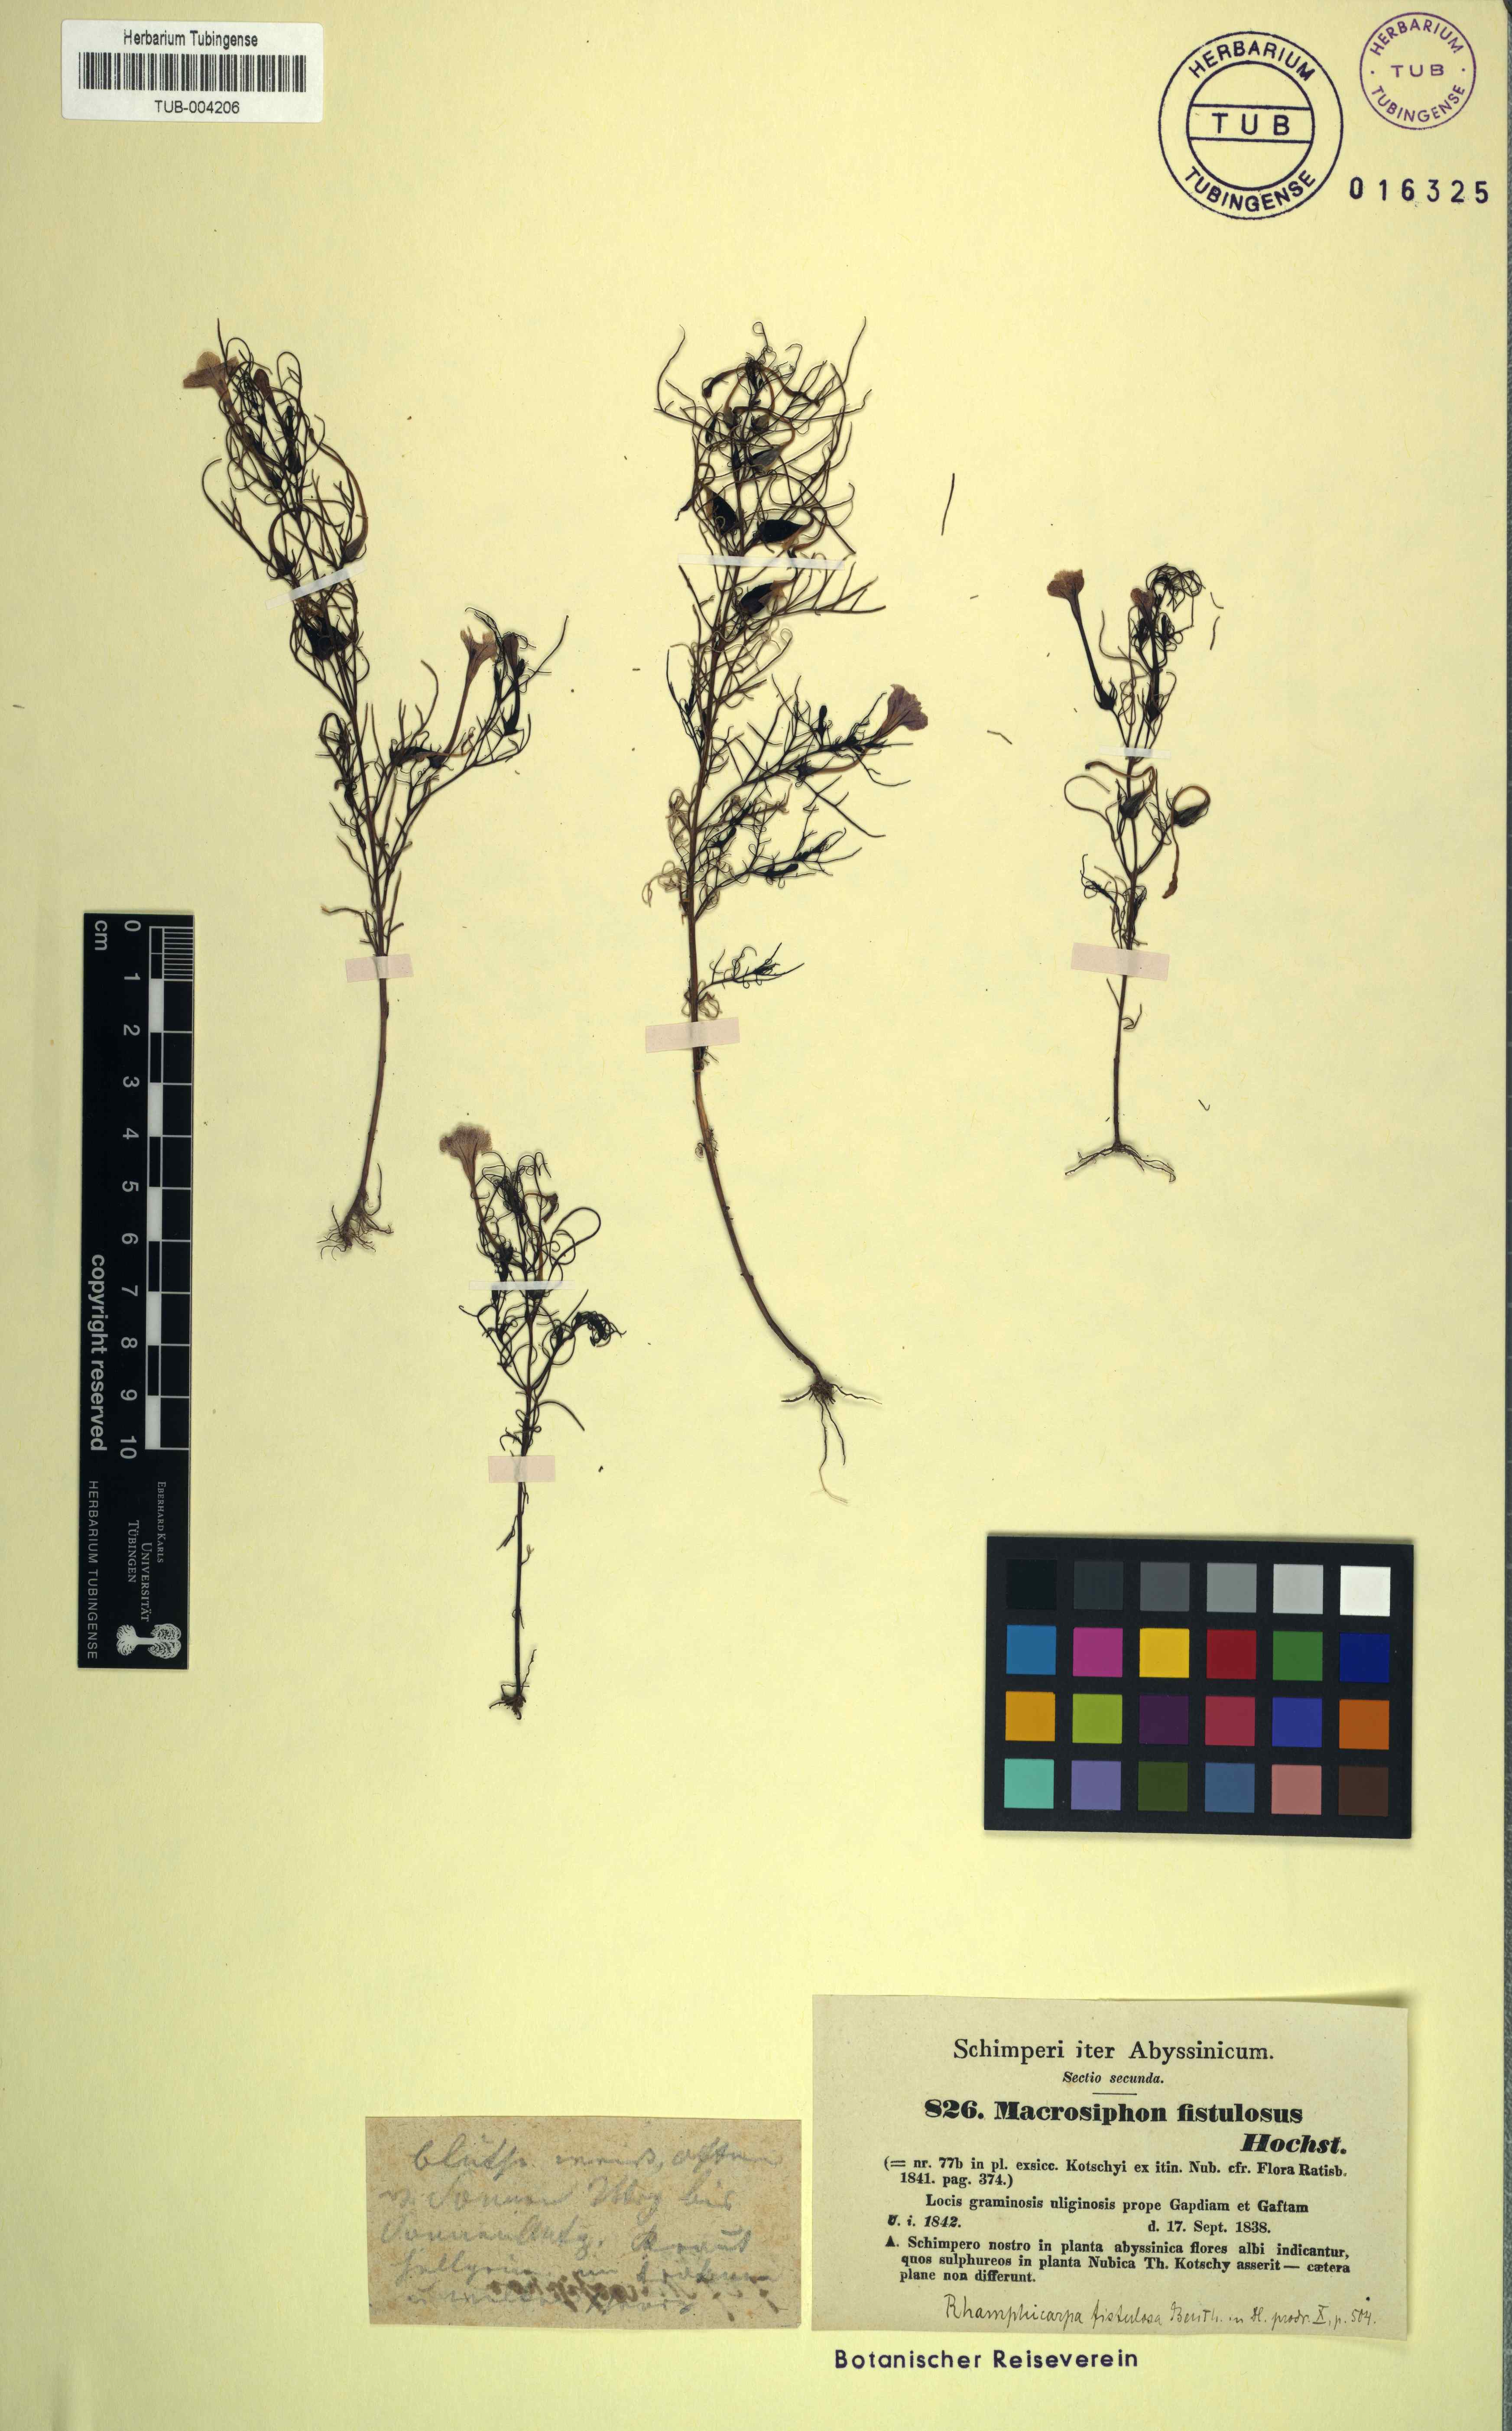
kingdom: Plantae
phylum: Tracheophyta
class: Magnoliopsida
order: Lamiales
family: Orobanchaceae
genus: Rhamphicarpa
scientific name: Rhamphicarpa elongata
